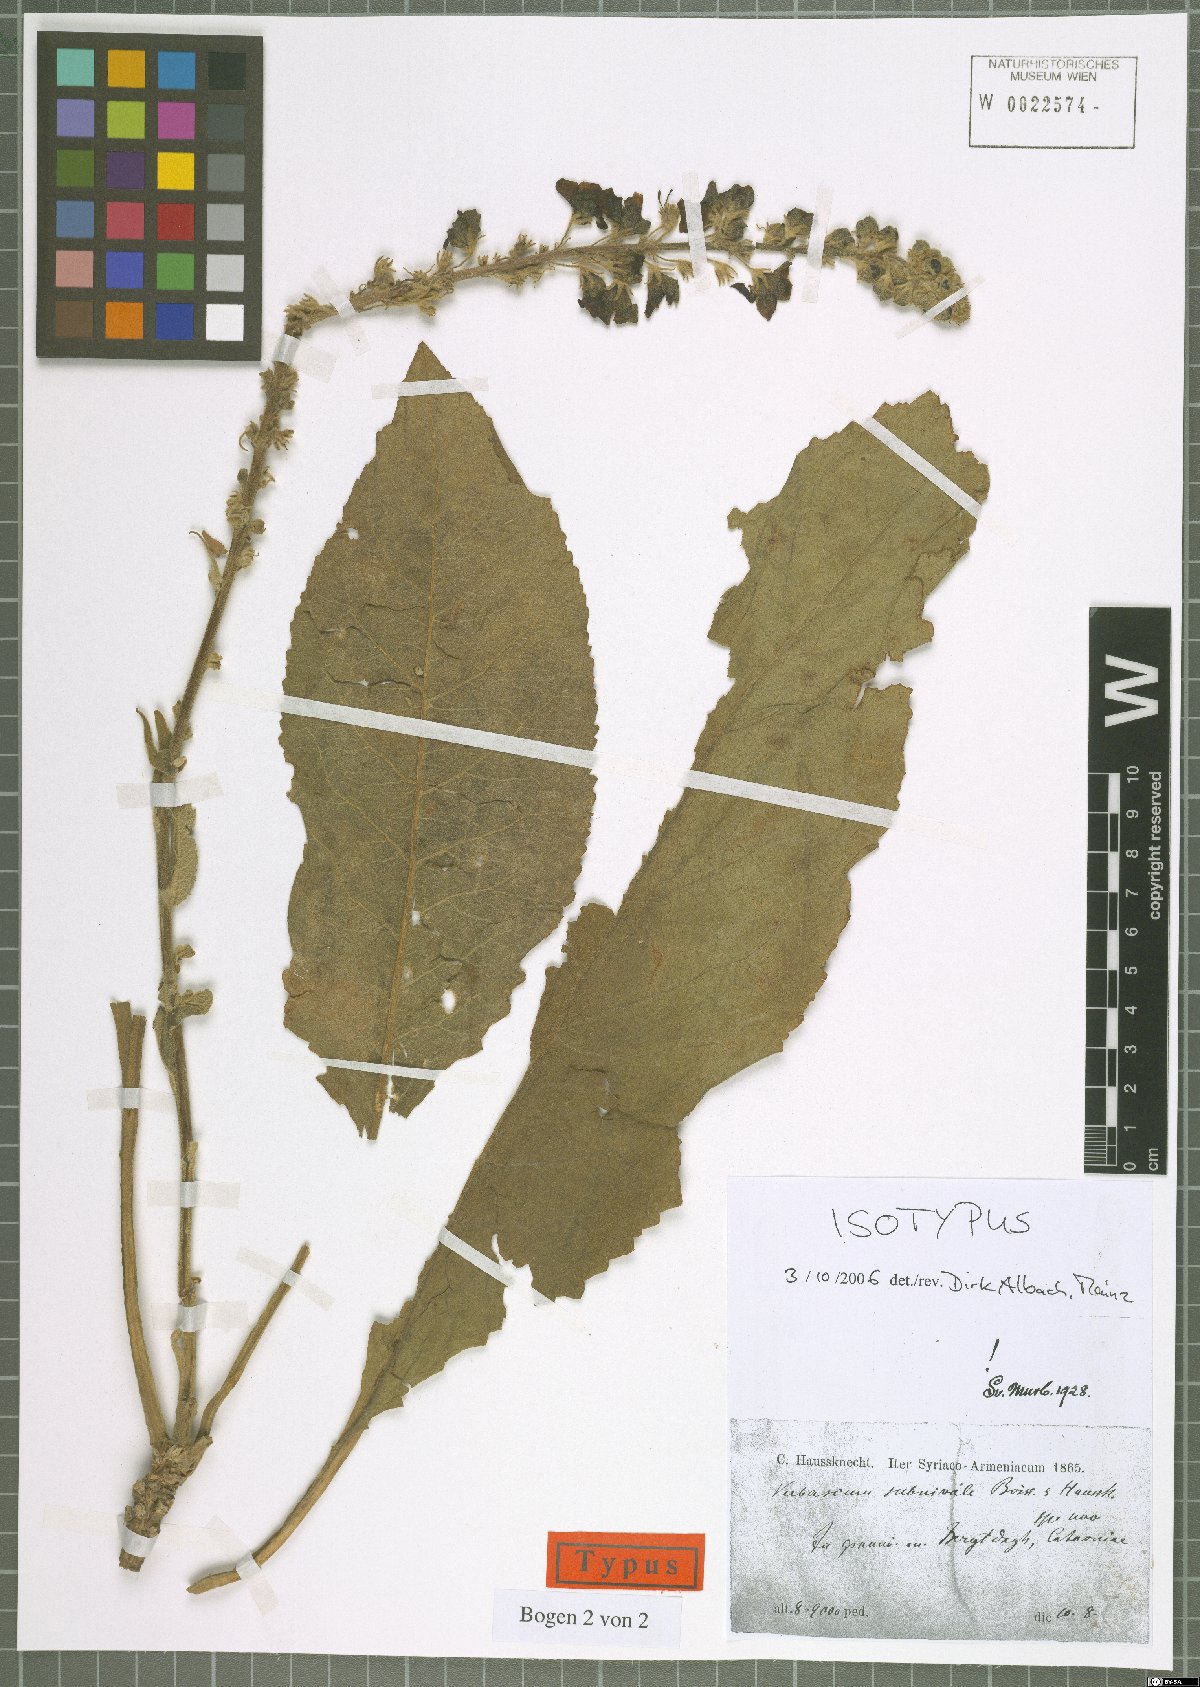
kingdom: Plantae
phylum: Tracheophyta
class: Magnoliopsida
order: Lamiales
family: Scrophulariaceae
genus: Verbascum
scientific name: Verbascum subnivale
